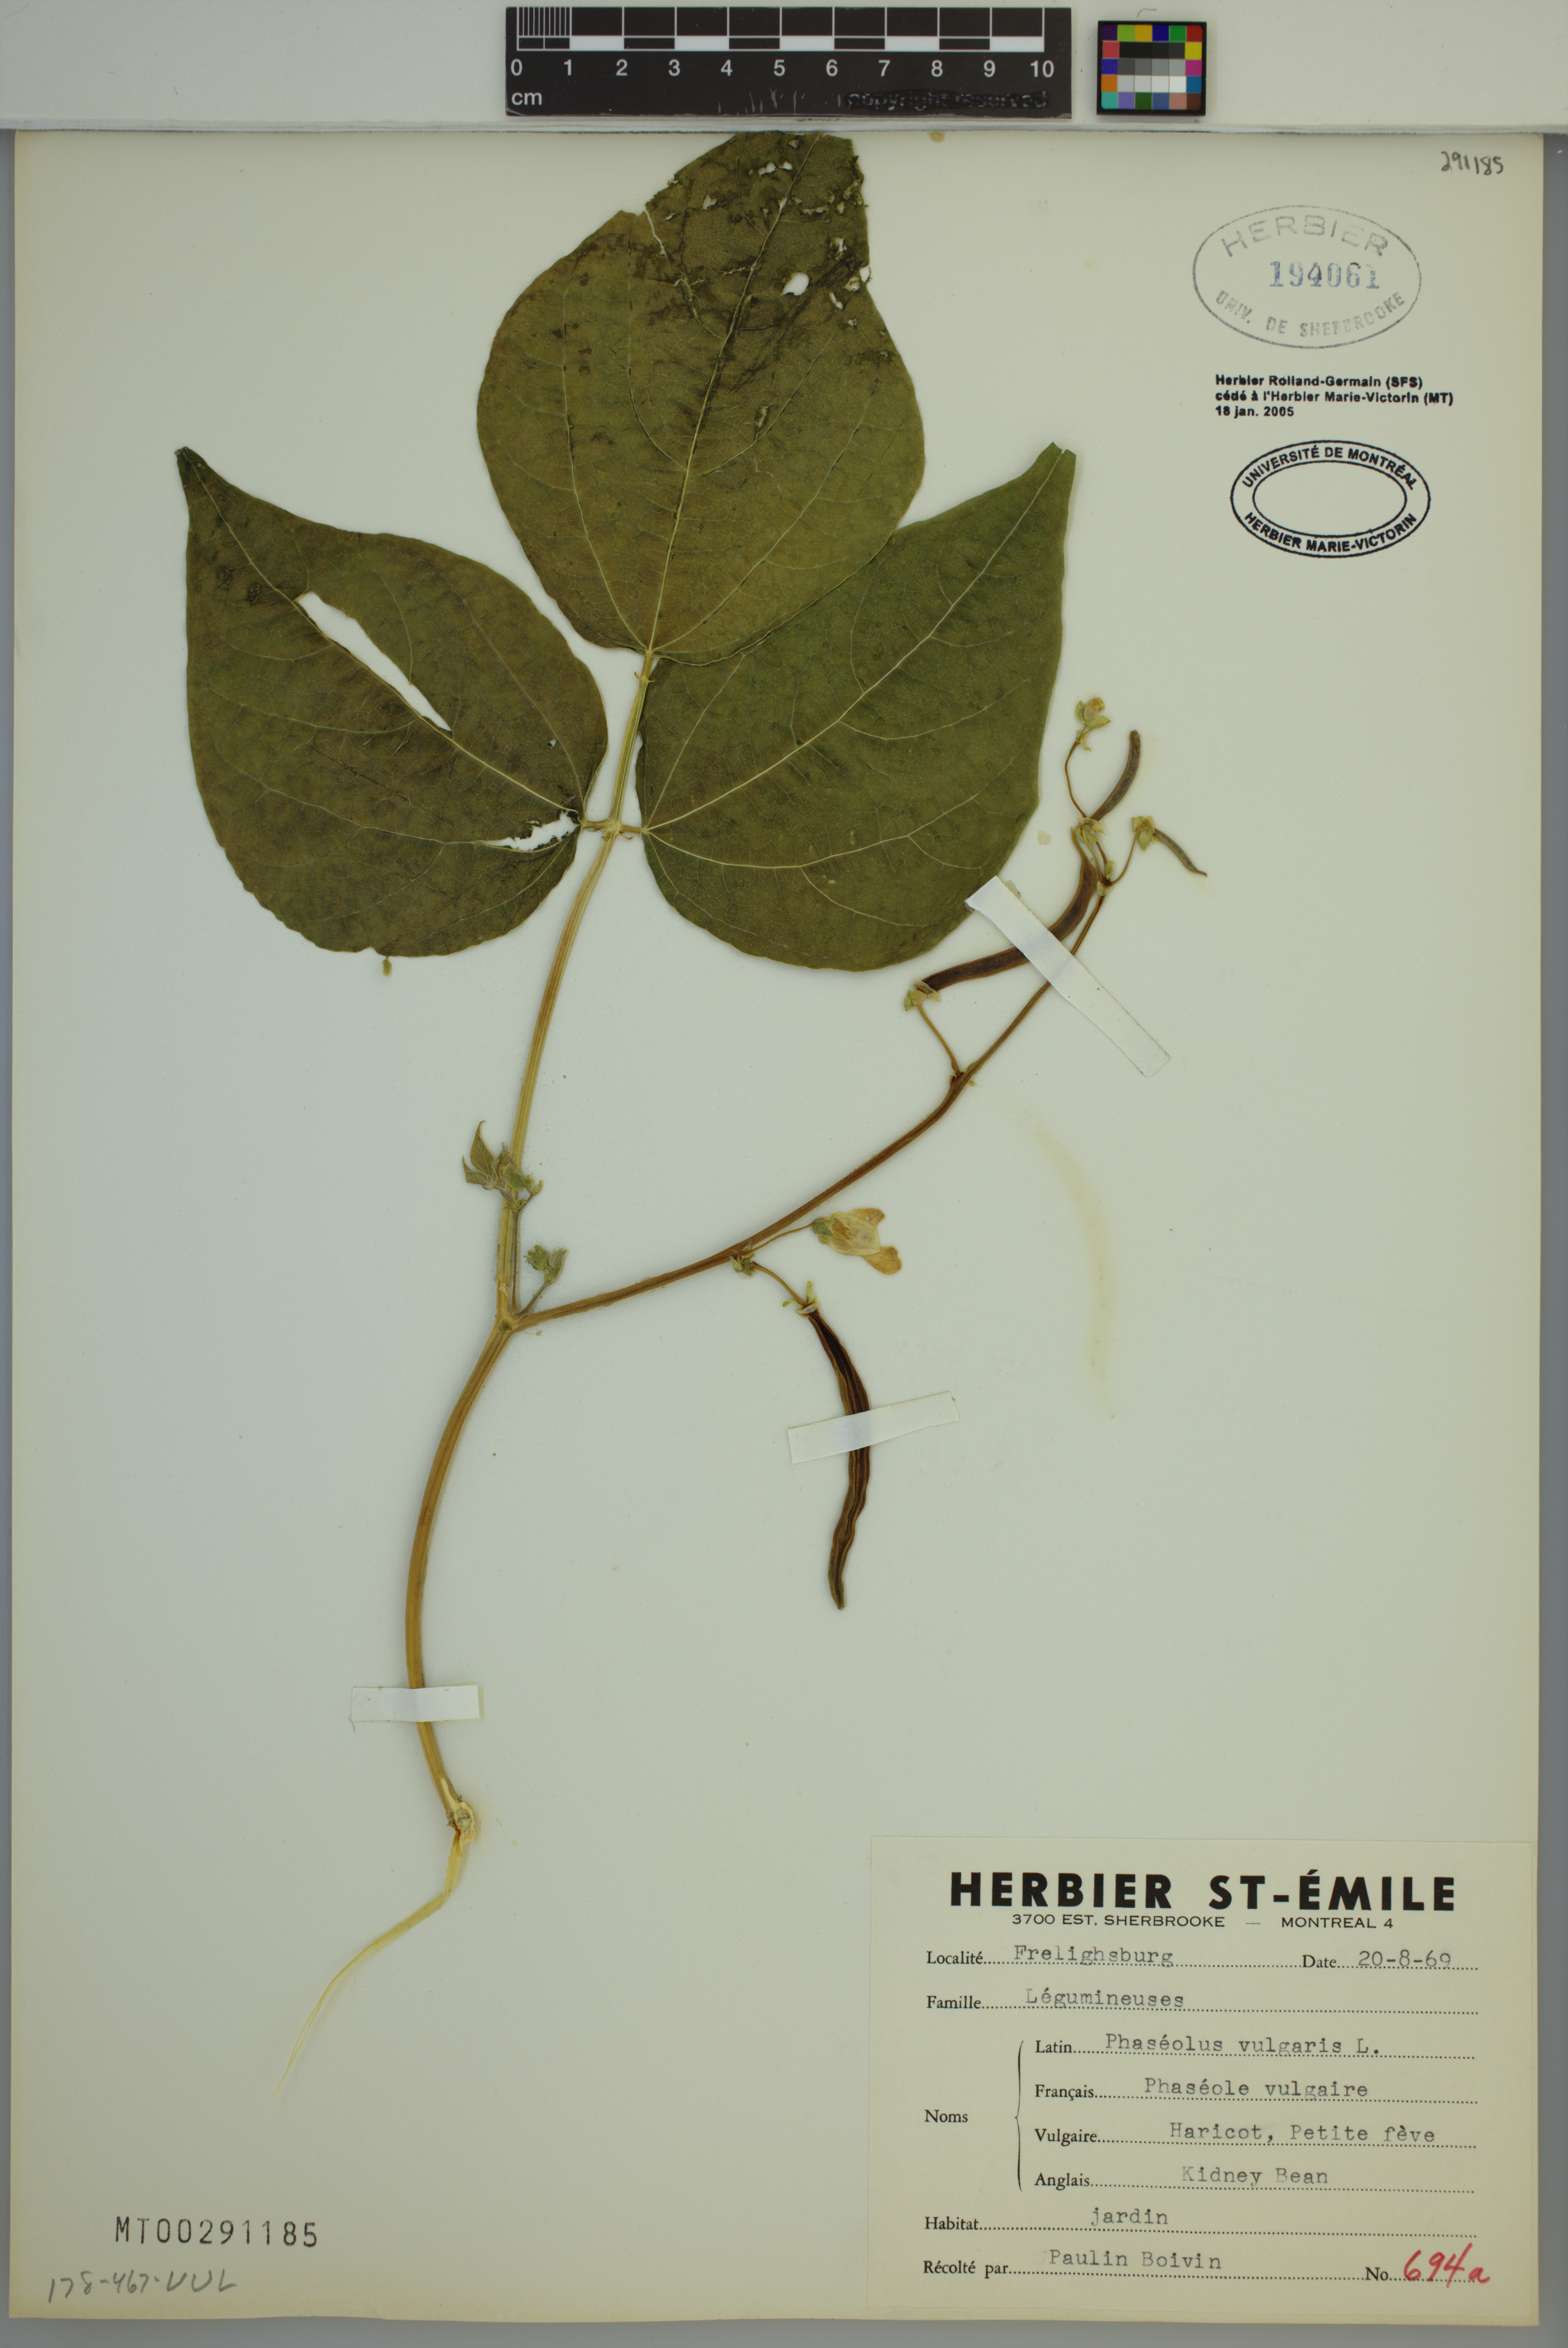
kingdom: Plantae
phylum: Tracheophyta
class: Magnoliopsida
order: Fabales
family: Fabaceae
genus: Phaseolus
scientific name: Phaseolus vulgaris
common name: Bean
